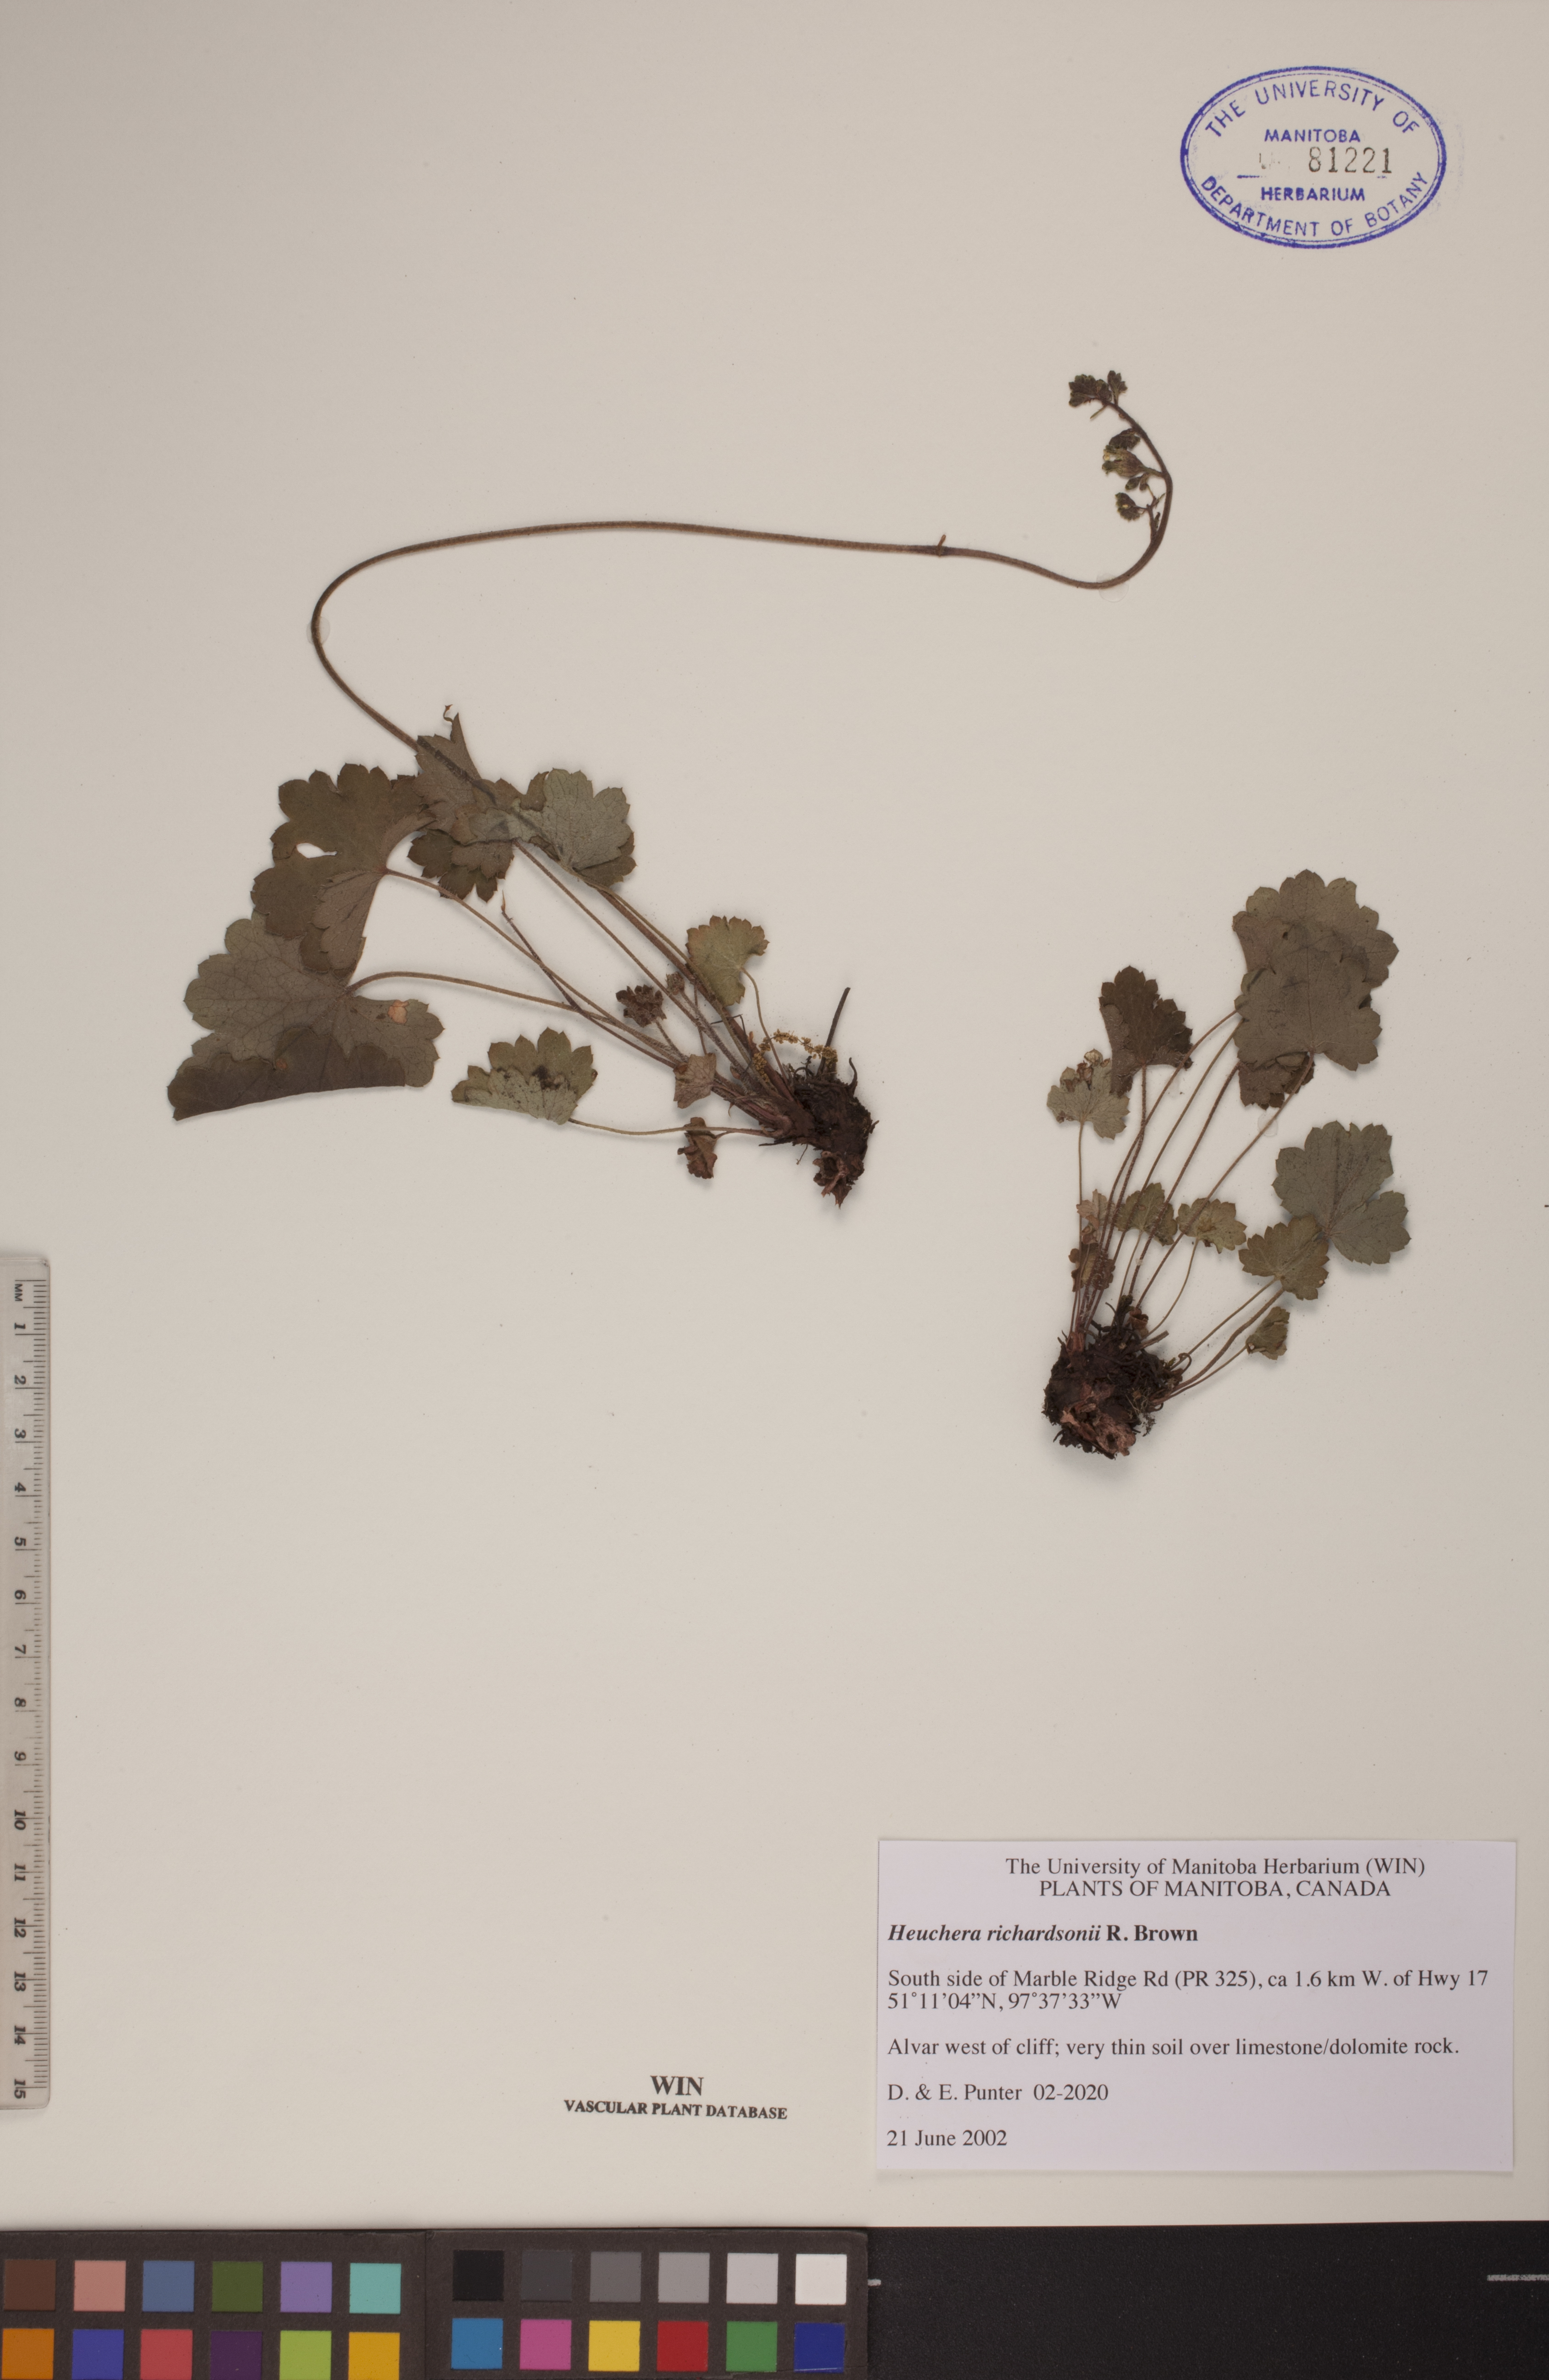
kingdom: Plantae
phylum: Tracheophyta
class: Magnoliopsida
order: Saxifragales
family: Saxifragaceae
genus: Heuchera
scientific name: Heuchera richardsonii
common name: Richardson's alumroot
